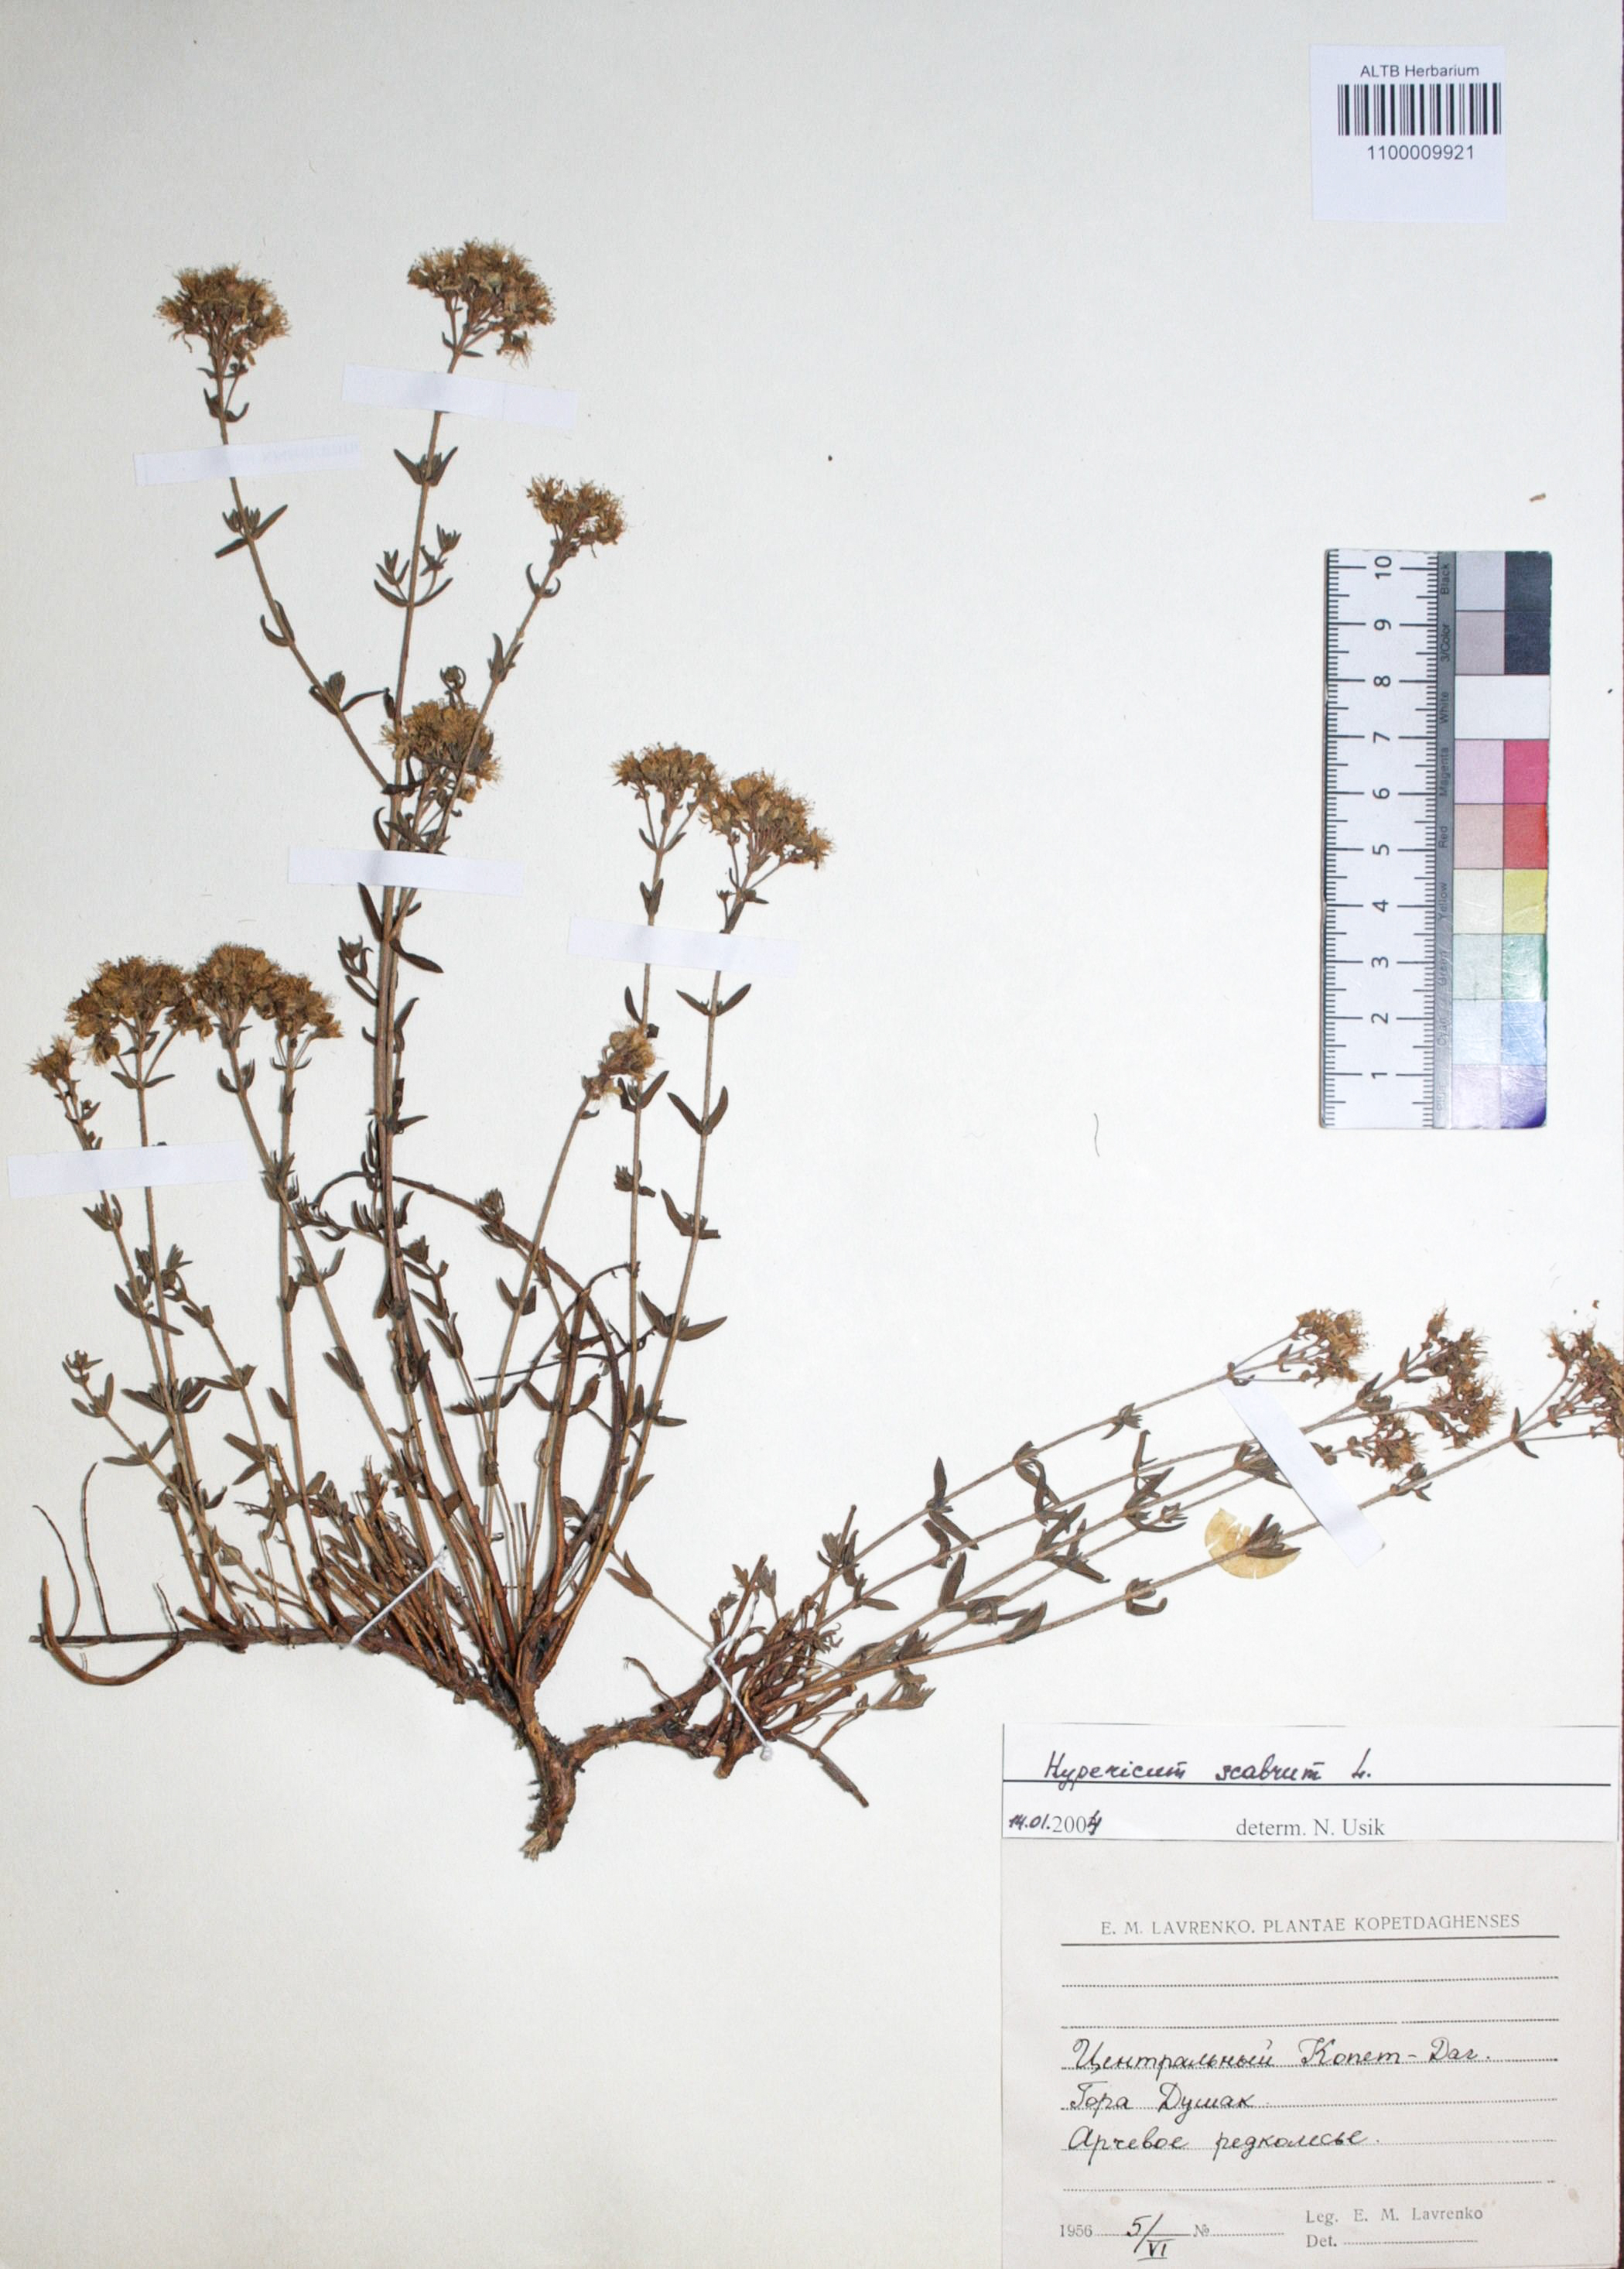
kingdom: Plantae
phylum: Tracheophyta
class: Magnoliopsida
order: Malpighiales
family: Hypericaceae
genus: Hypericum
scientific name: Hypericum scabrum
